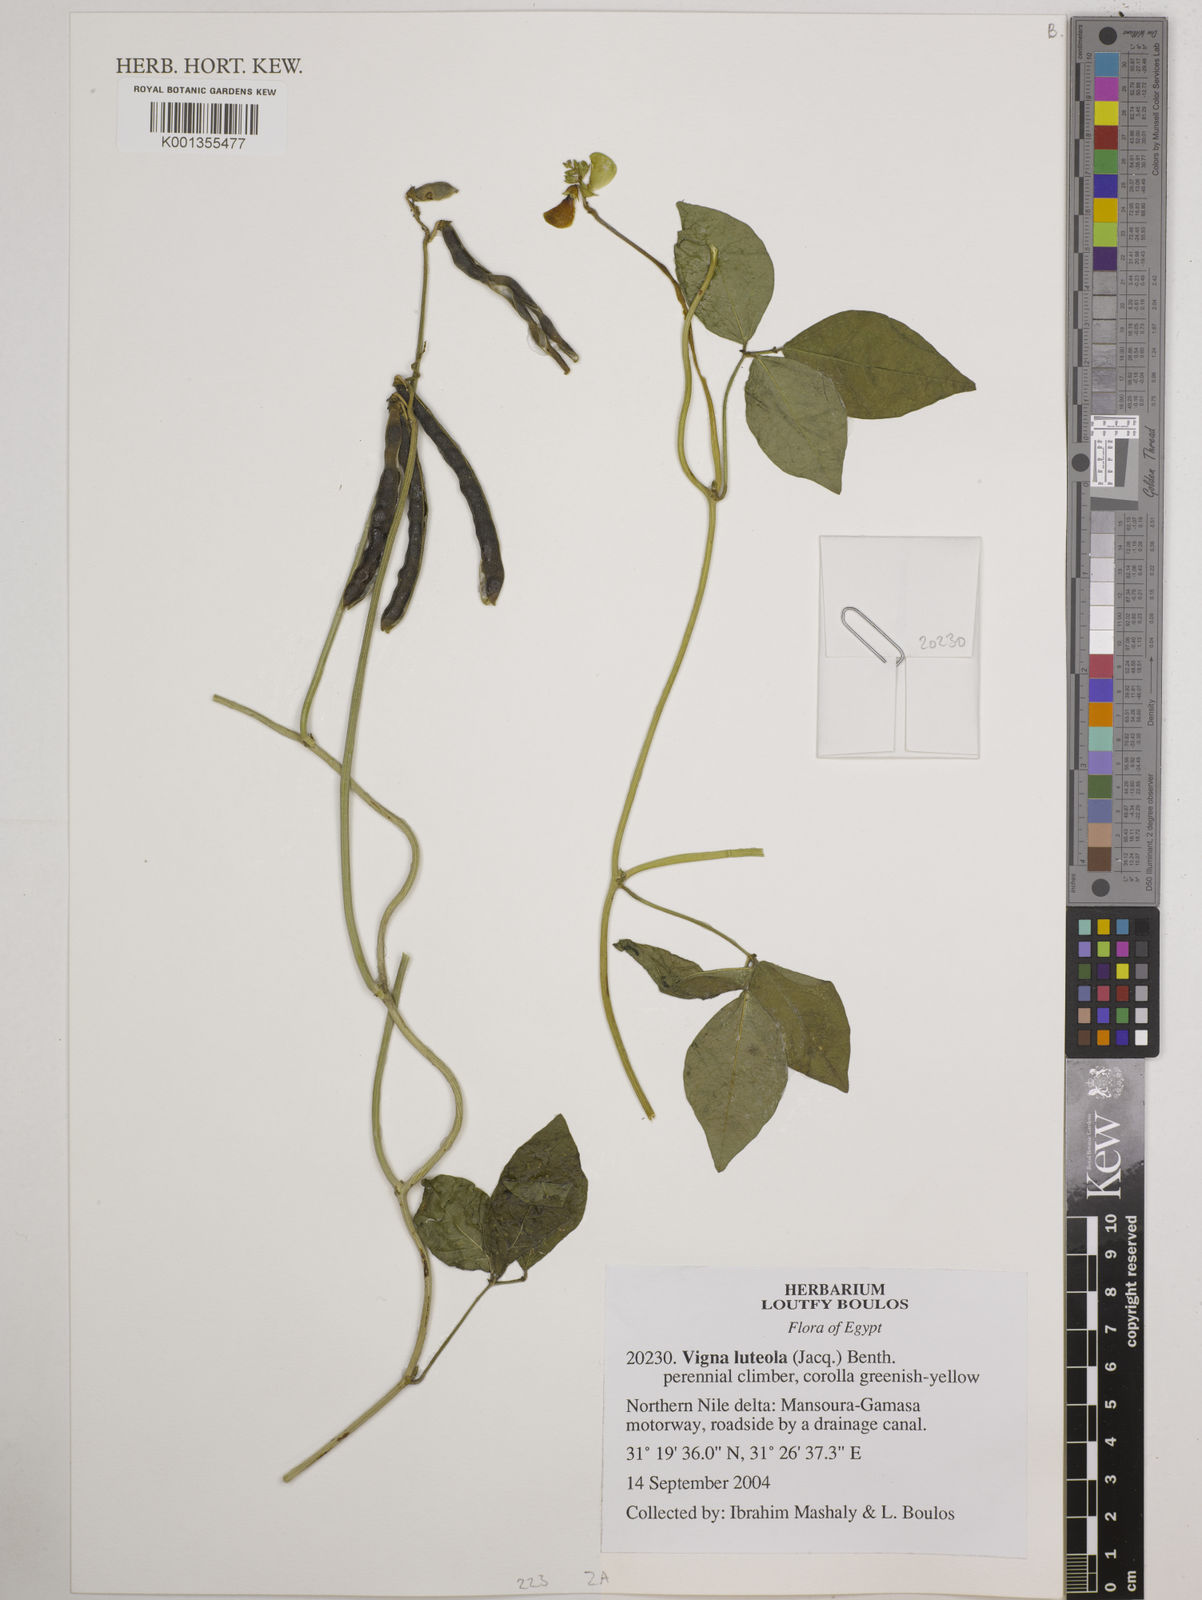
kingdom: Plantae
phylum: Tracheophyta
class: Magnoliopsida
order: Fabales
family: Fabaceae
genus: Vigna
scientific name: Vigna luteola
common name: Hairypod cowpea
